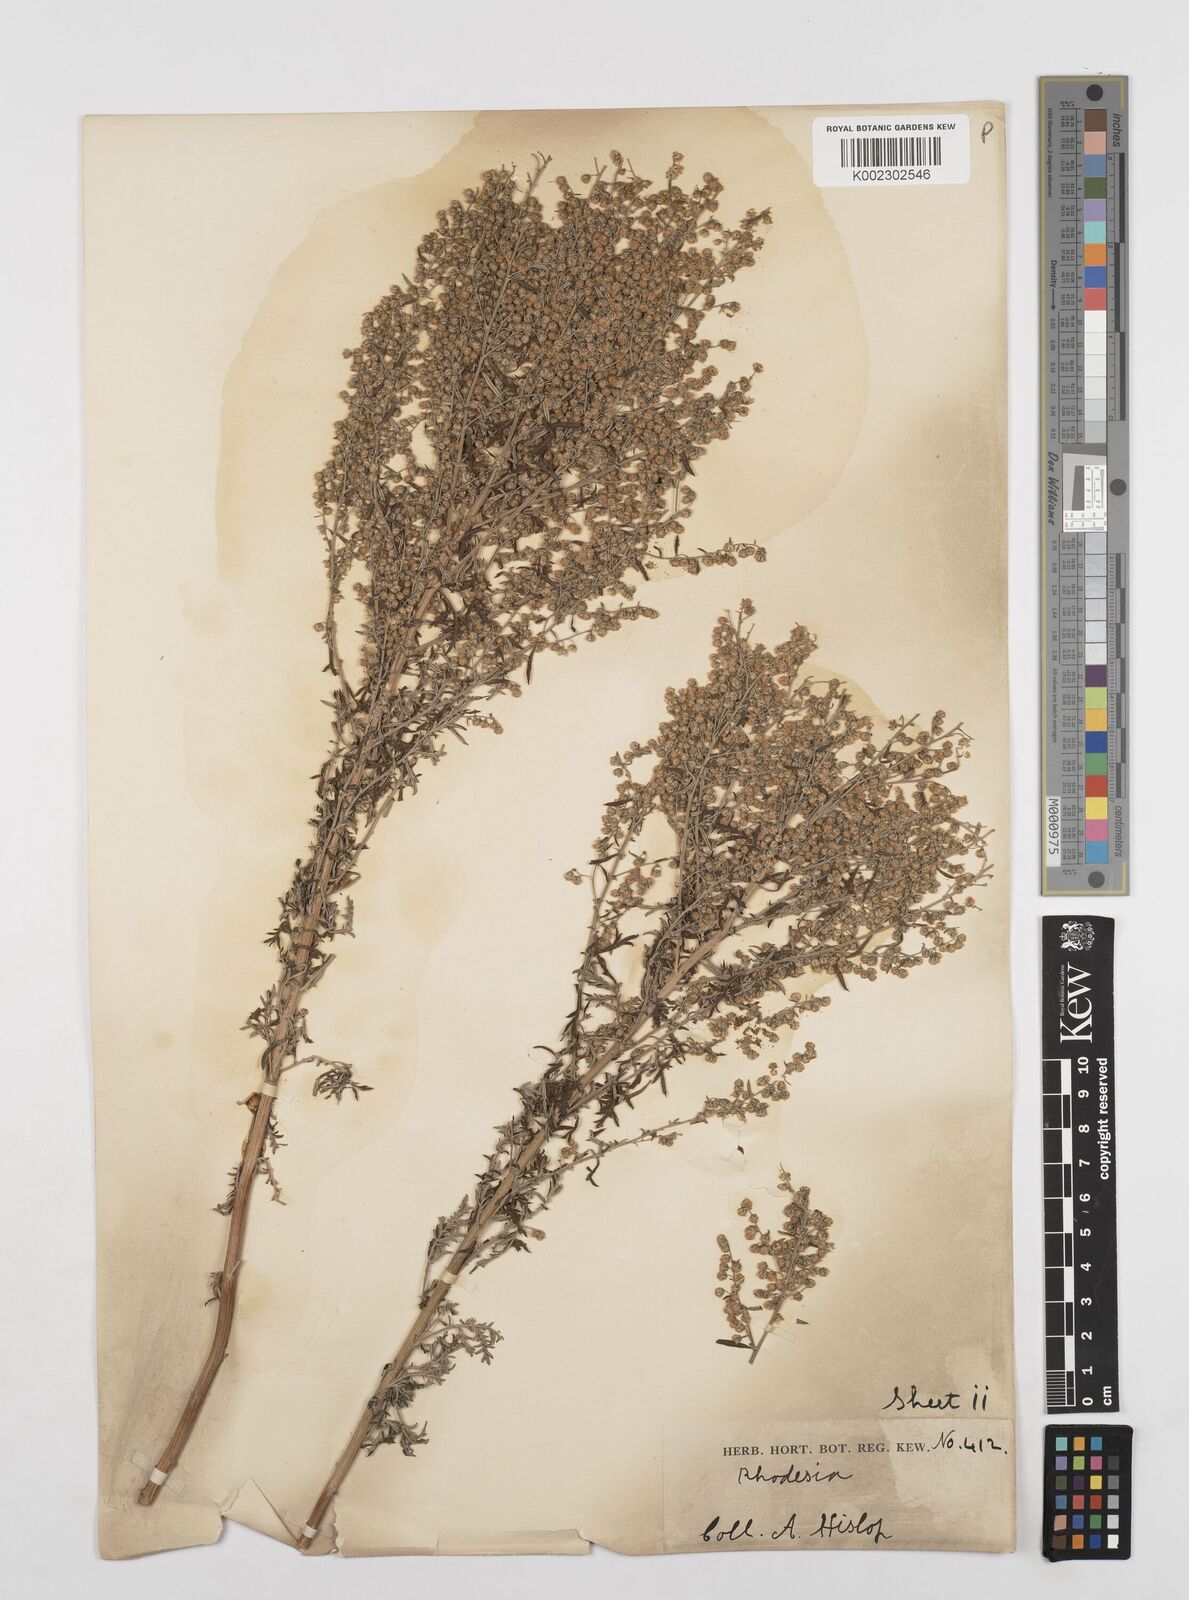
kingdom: Plantae
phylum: Tracheophyta
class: Magnoliopsida
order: Asterales
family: Asteraceae
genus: Artemisia
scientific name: Artemisia afra
